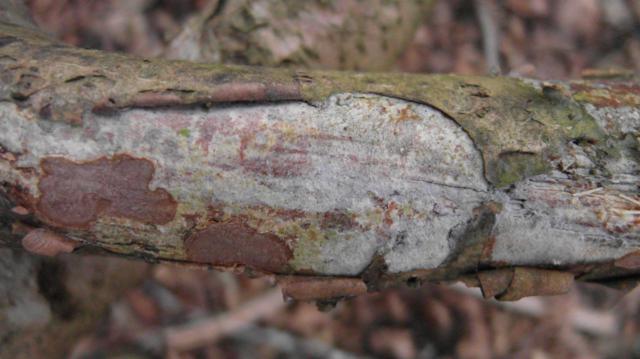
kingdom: Fungi
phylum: Basidiomycota
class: Agaricomycetes
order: Cantharellales
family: Hydnaceae
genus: Sistotrema
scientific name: Sistotrema brinkmannii
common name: bønnesporet kroneskorpe
